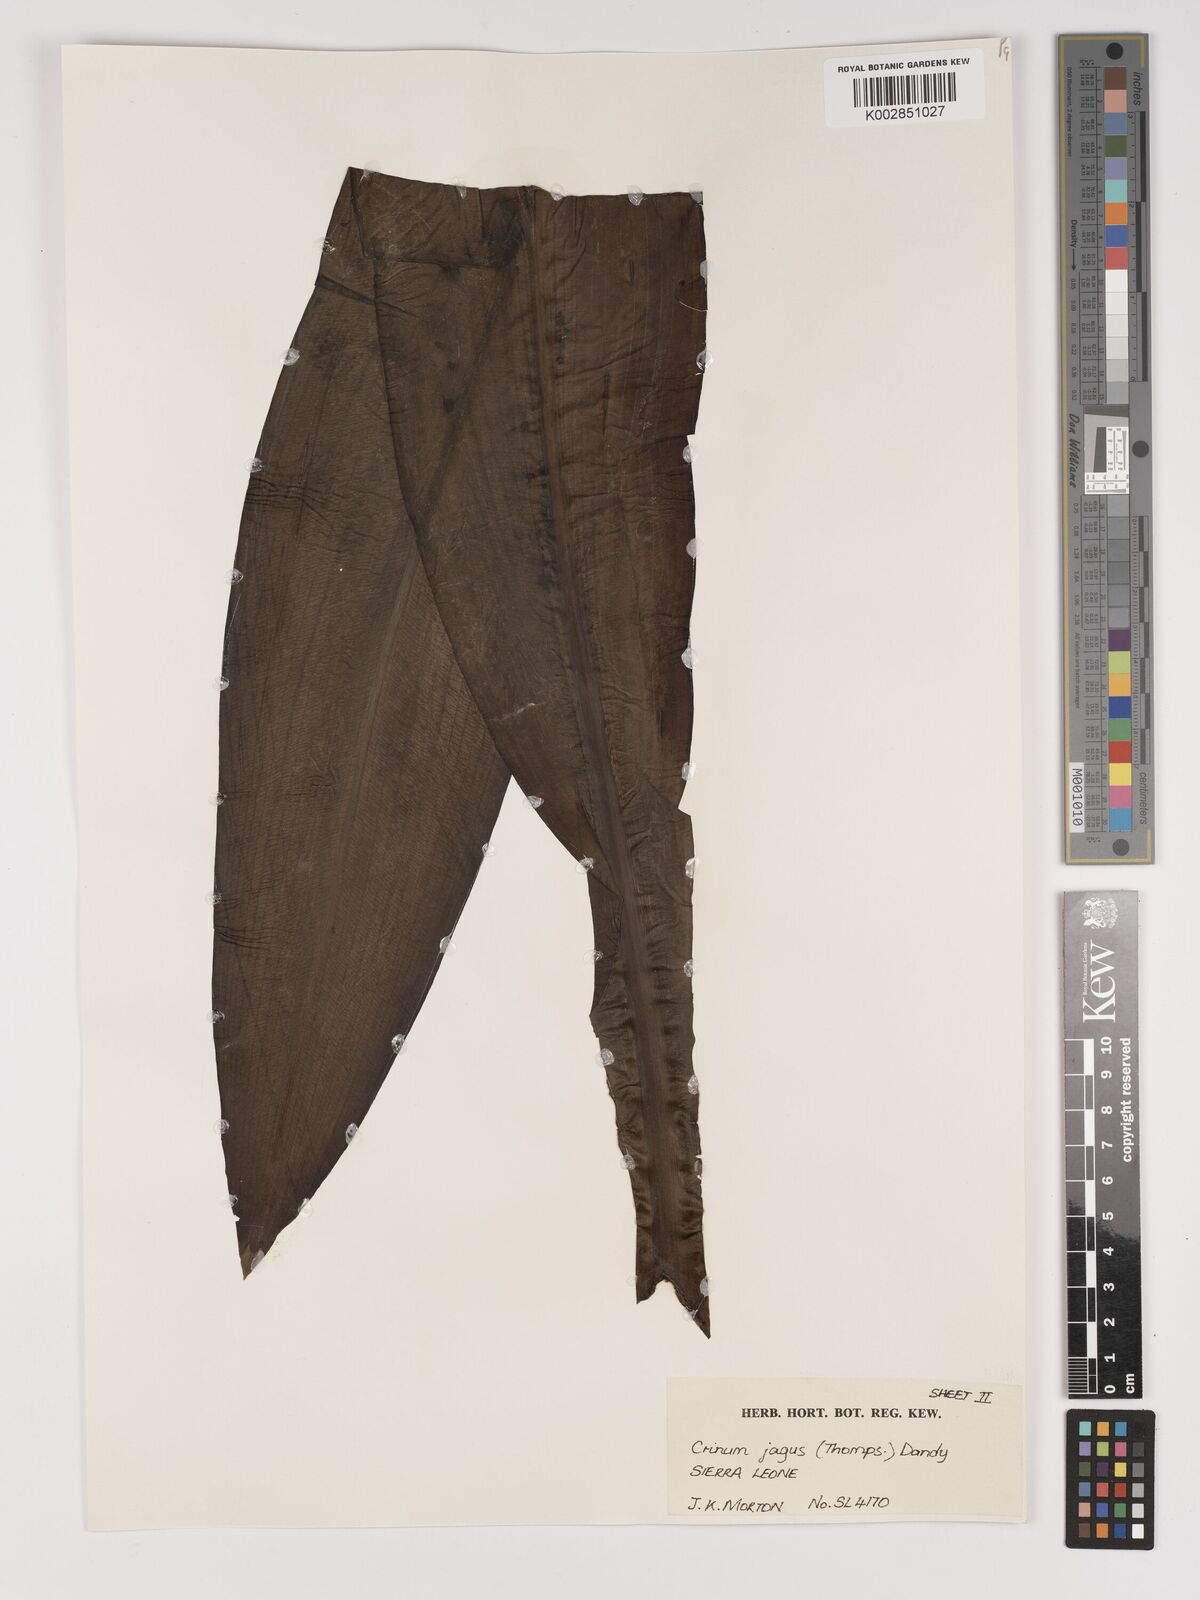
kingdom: Plantae
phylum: Tracheophyta
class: Liliopsida
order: Asparagales
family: Amaryllidaceae
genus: Crinum
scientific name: Crinum jagus
